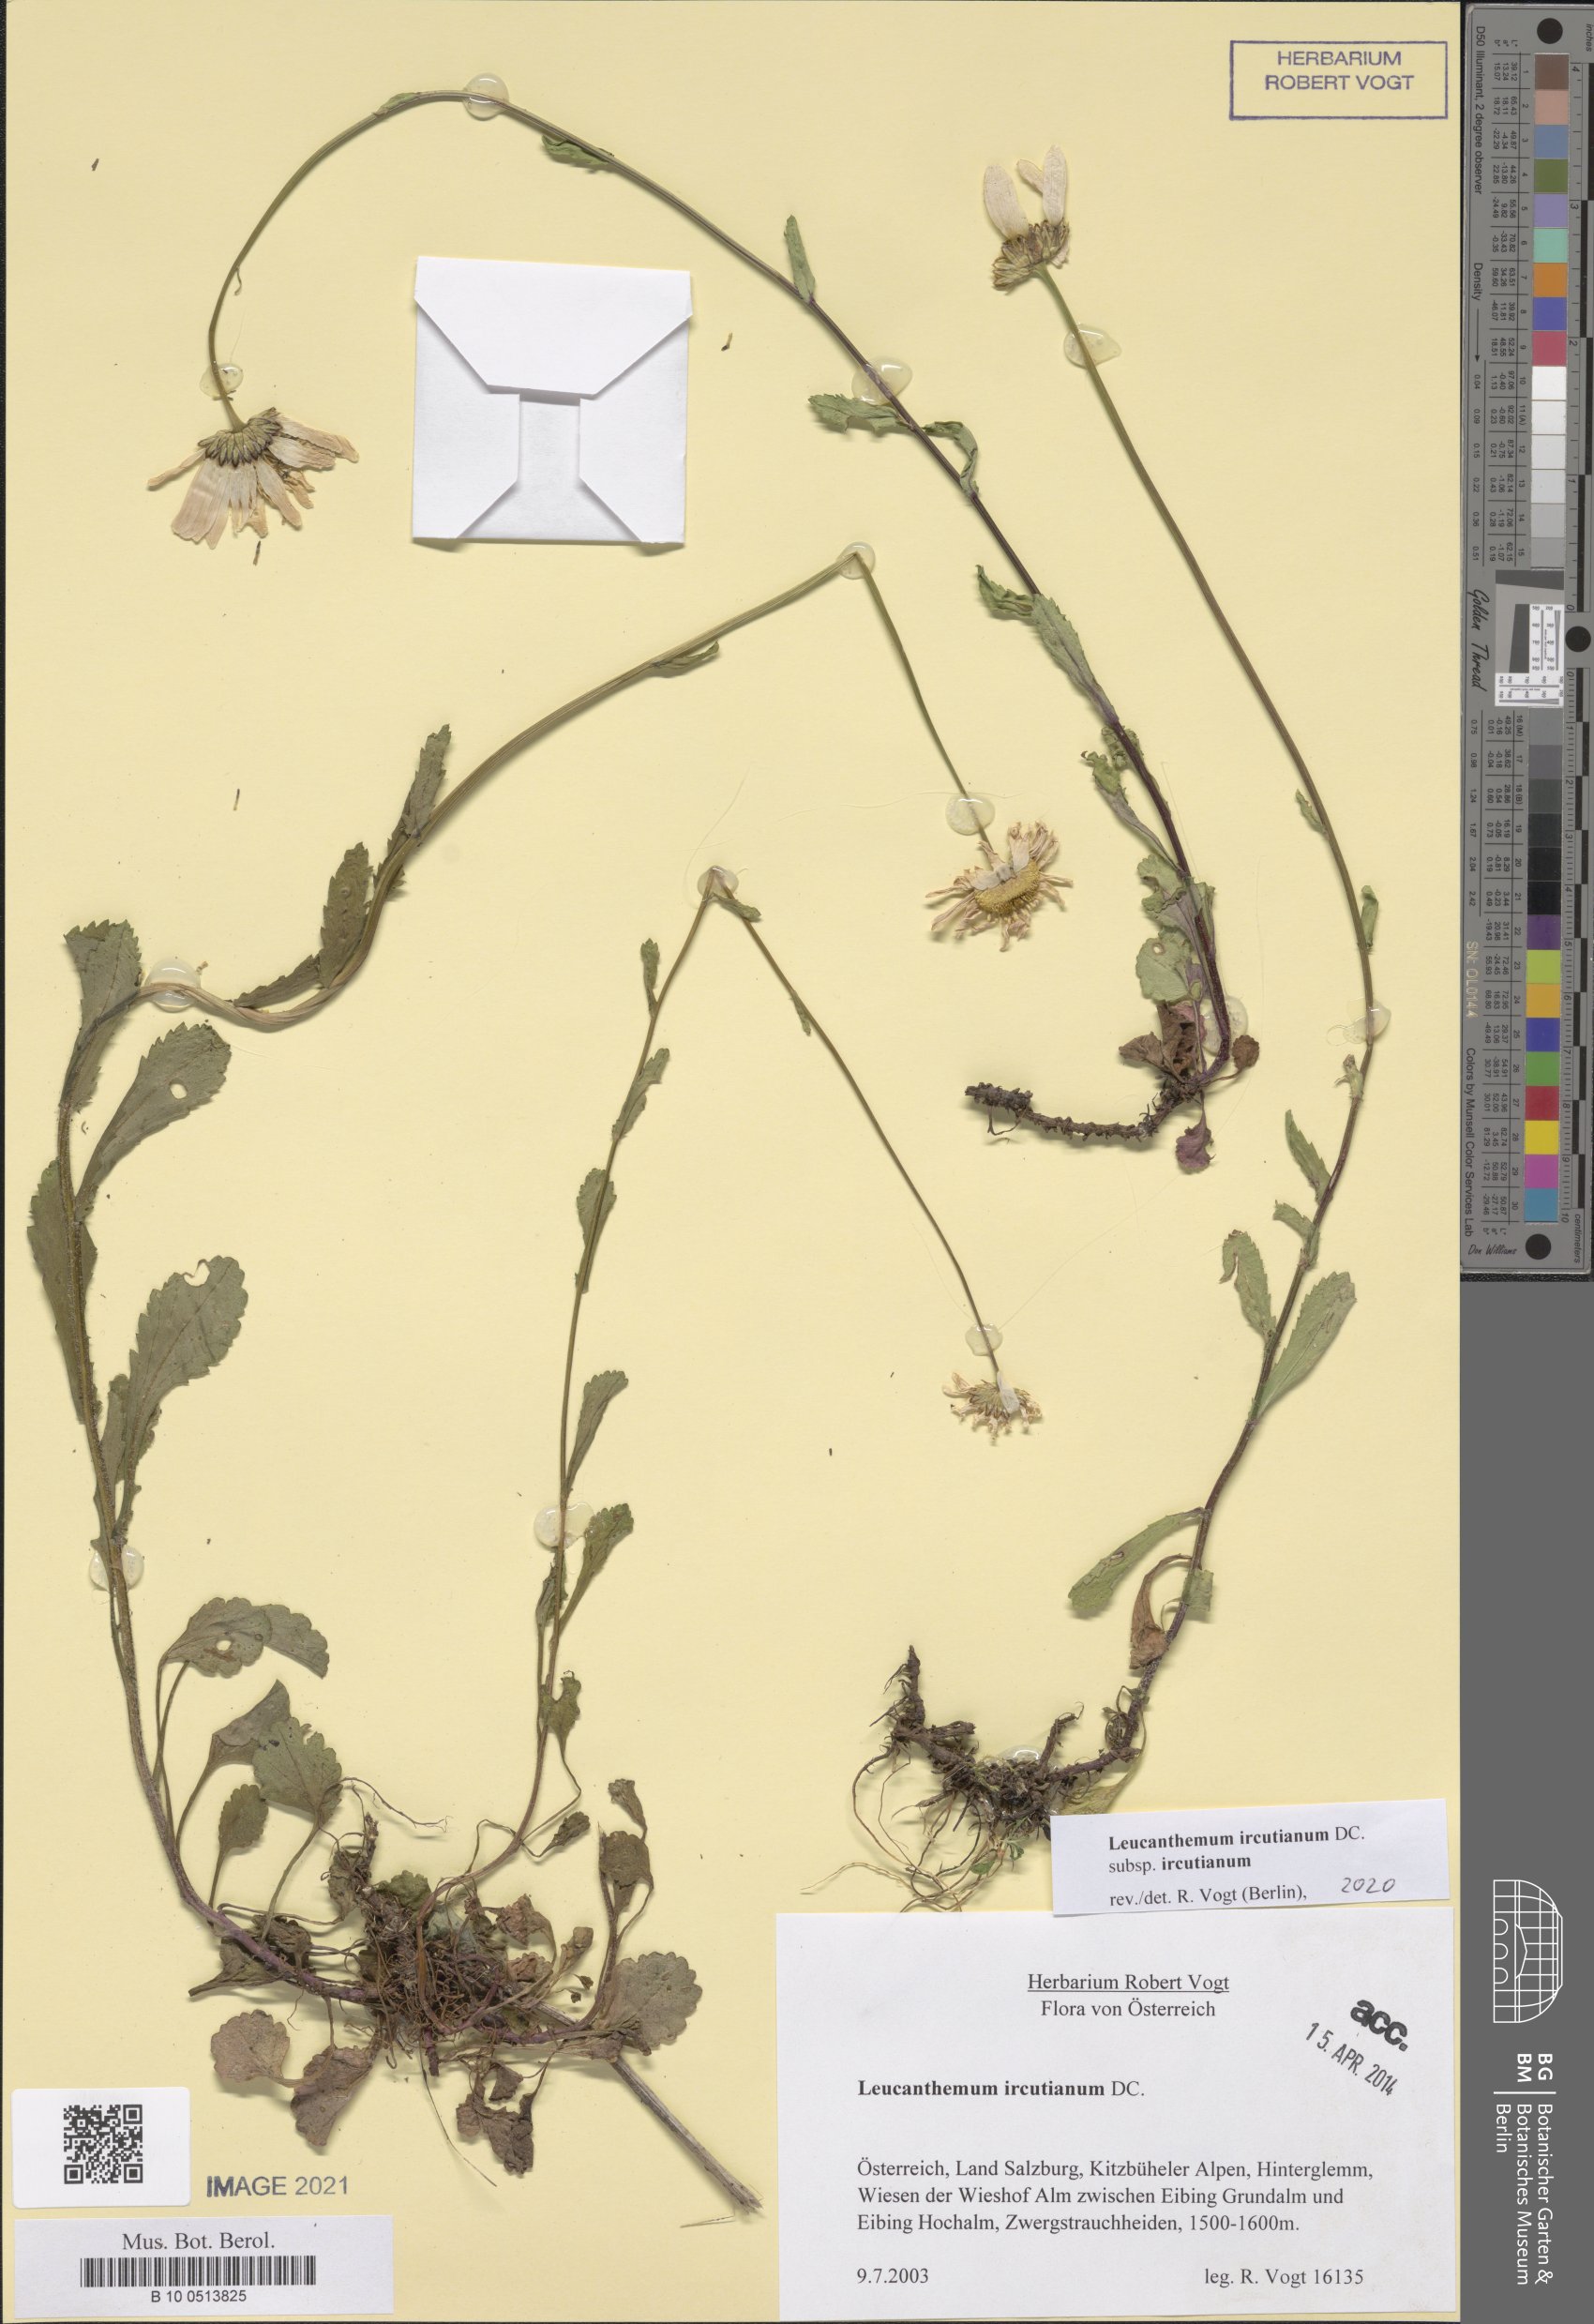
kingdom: Plantae
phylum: Tracheophyta
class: Magnoliopsida
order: Asterales
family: Asteraceae
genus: Leucanthemum
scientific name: Leucanthemum ircutianum
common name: Daisy
